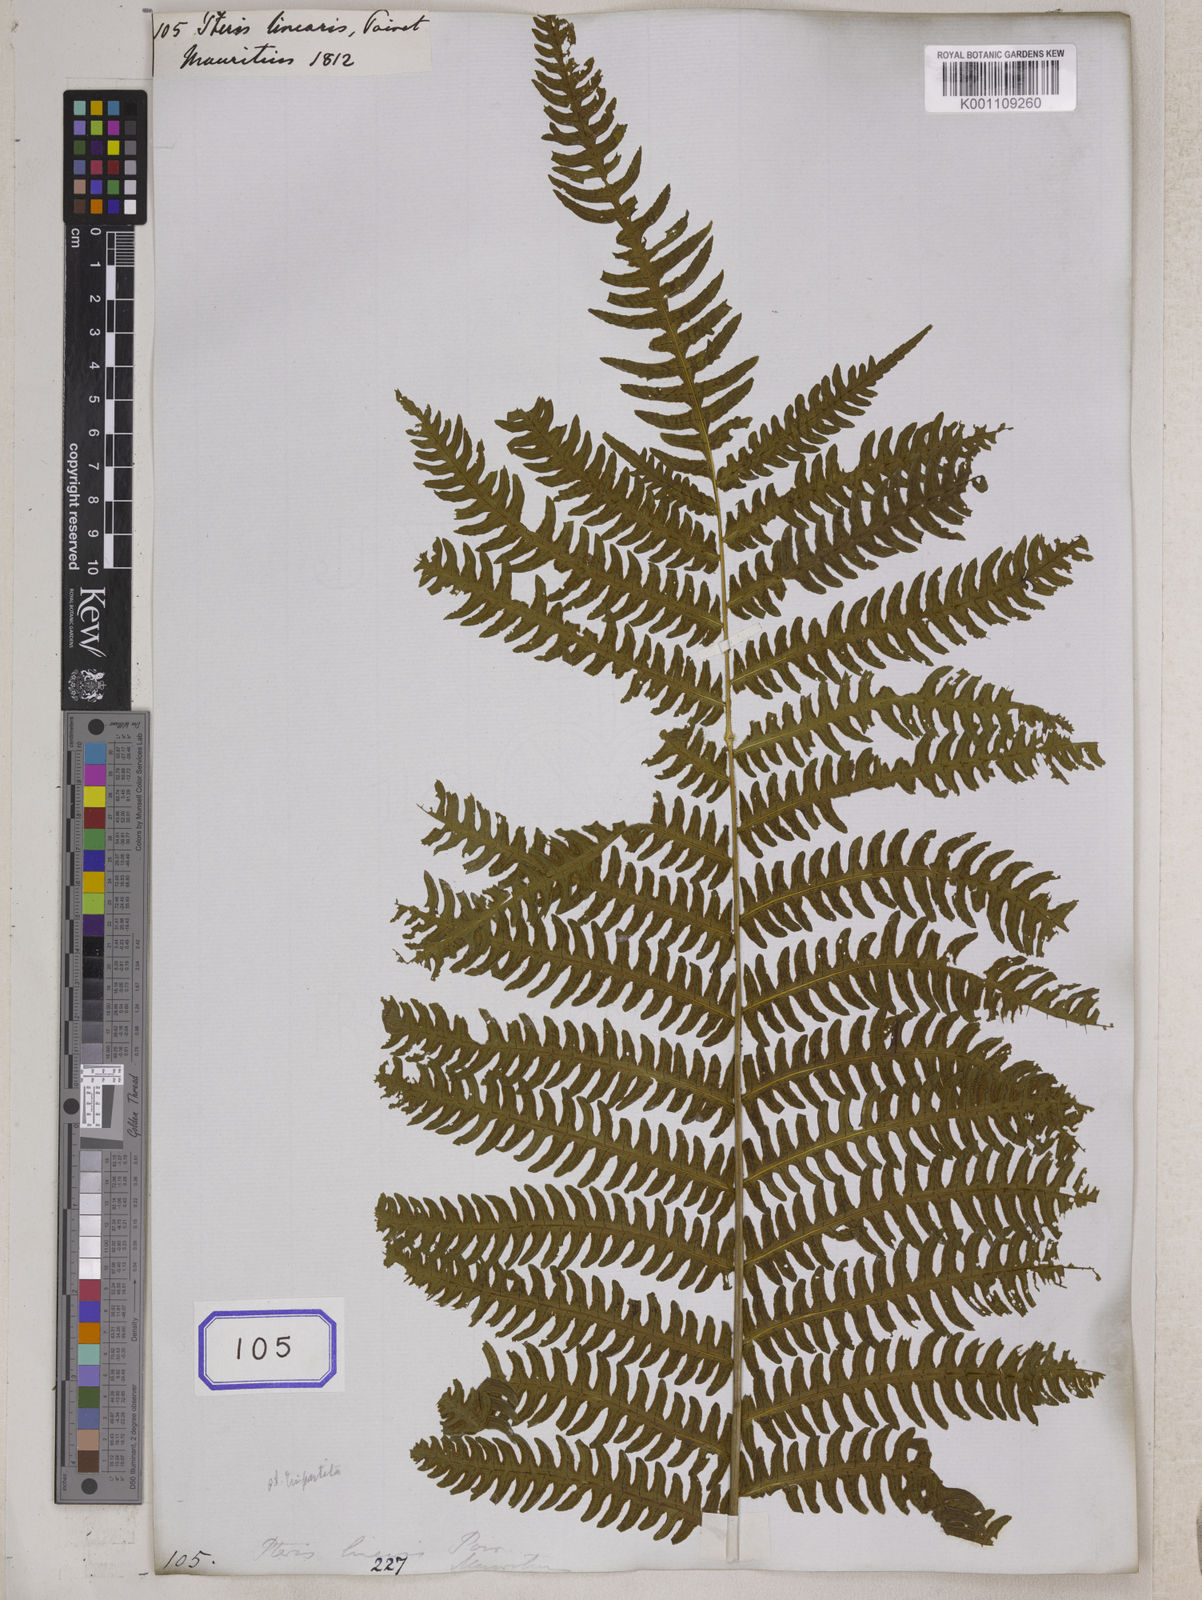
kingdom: Plantae
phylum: Tracheophyta
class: Polypodiopsida
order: Polypodiales
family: Pteridaceae
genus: Pteris
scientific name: Pteris linearis
